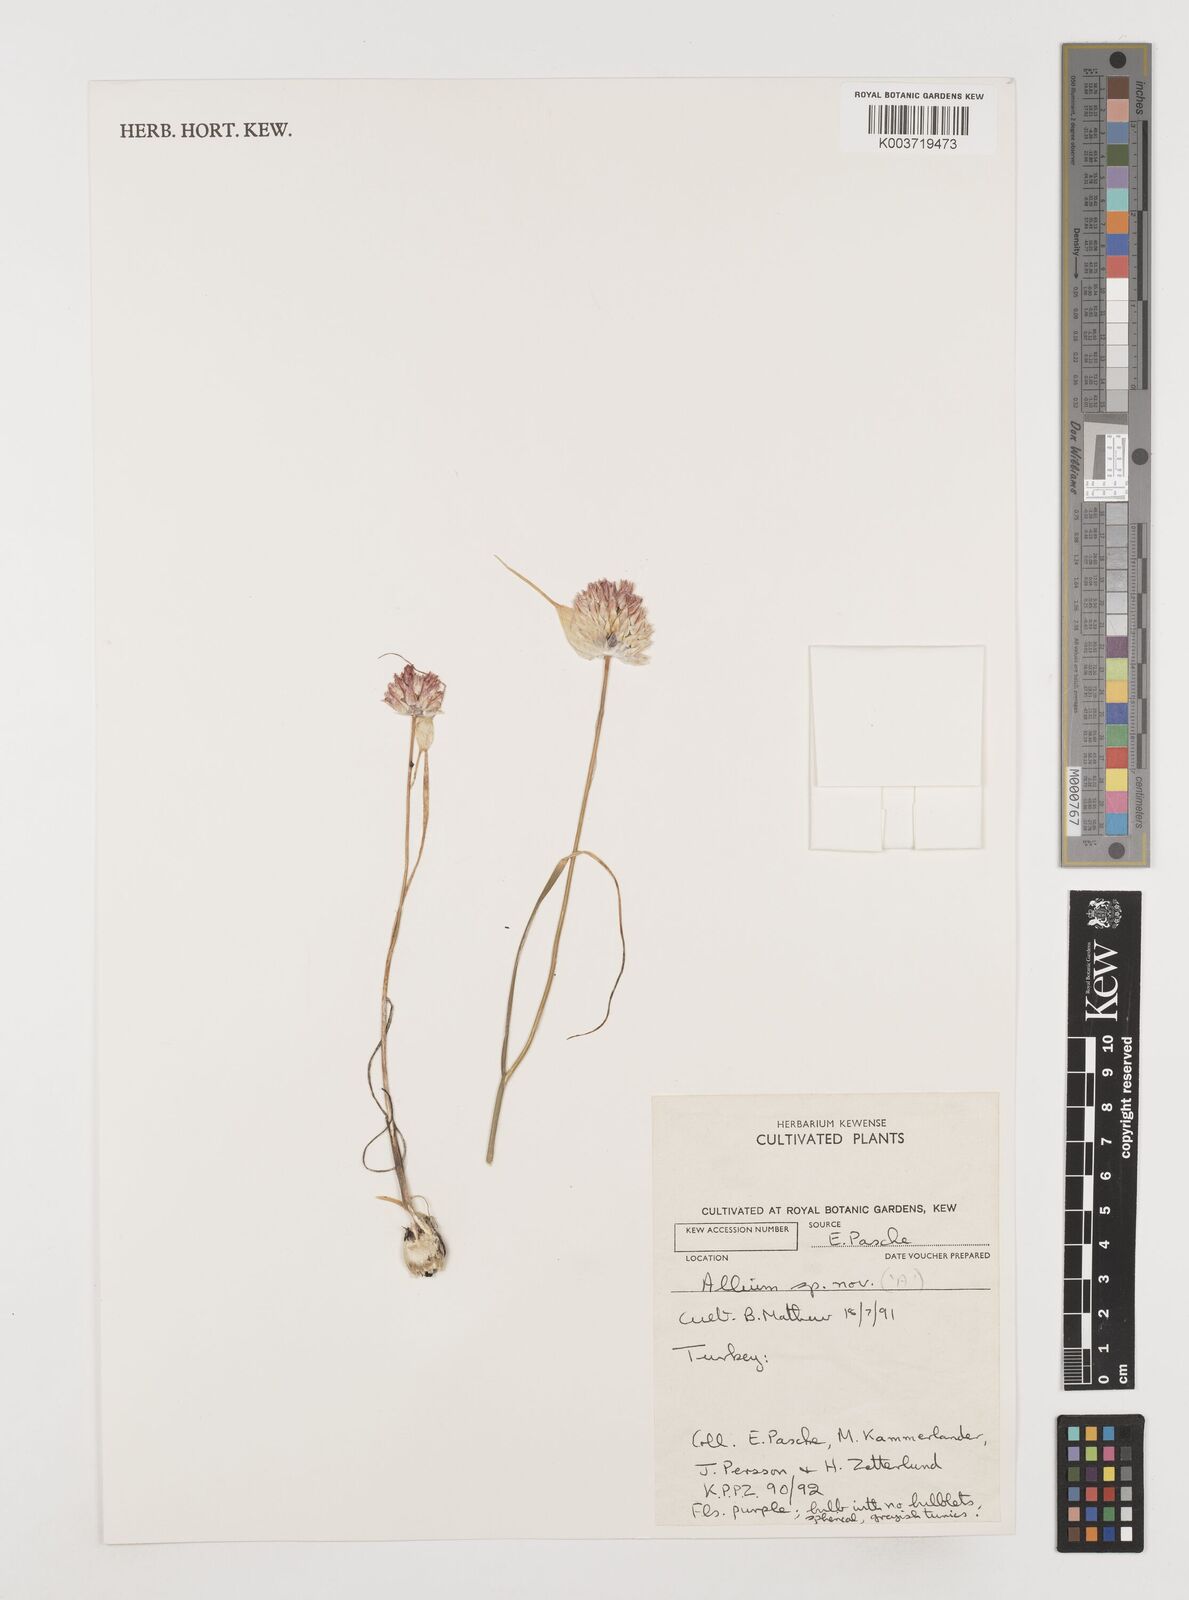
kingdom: Plantae
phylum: Tracheophyta
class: Liliopsida
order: Asparagales
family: Amaryllidaceae
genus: Allium
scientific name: Allium enginii
